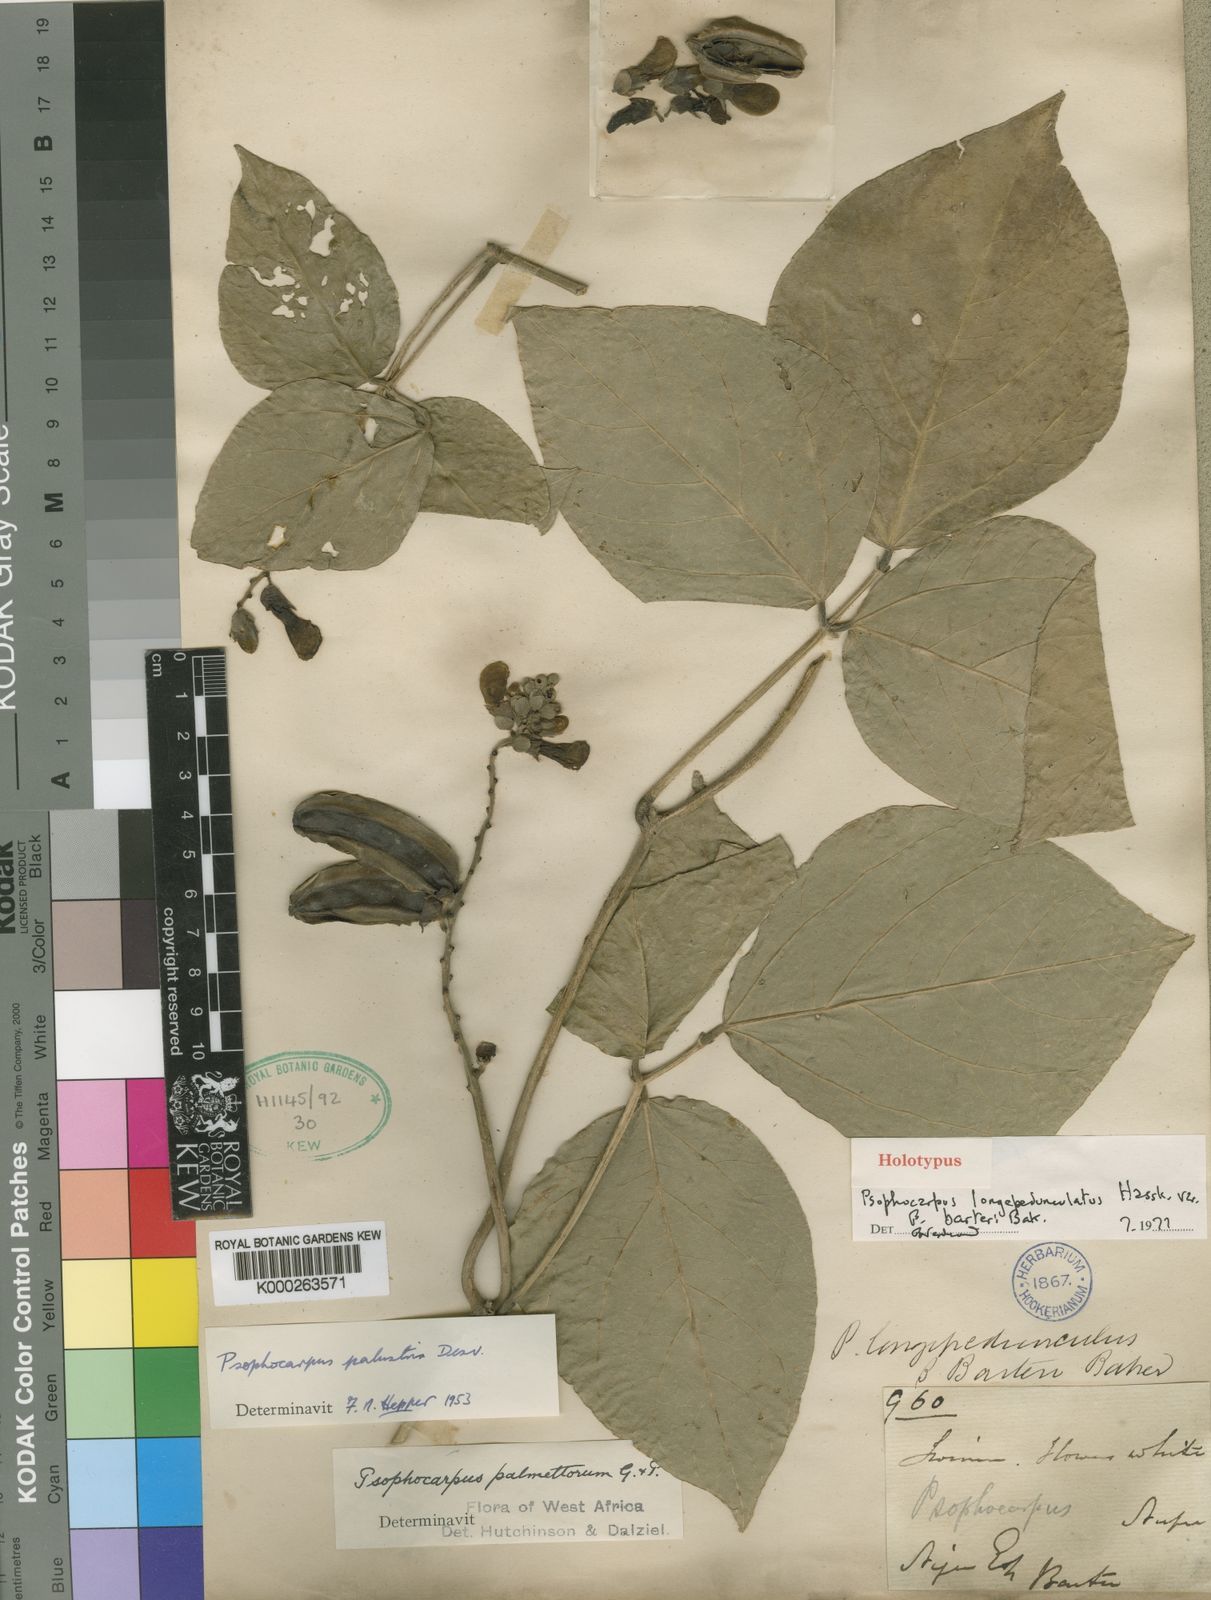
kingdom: Plantae
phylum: Tracheophyta
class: Magnoliopsida
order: Fabales
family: Fabaceae
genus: Psophocarpus
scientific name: Psophocarpus palustris
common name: African winged-bean
